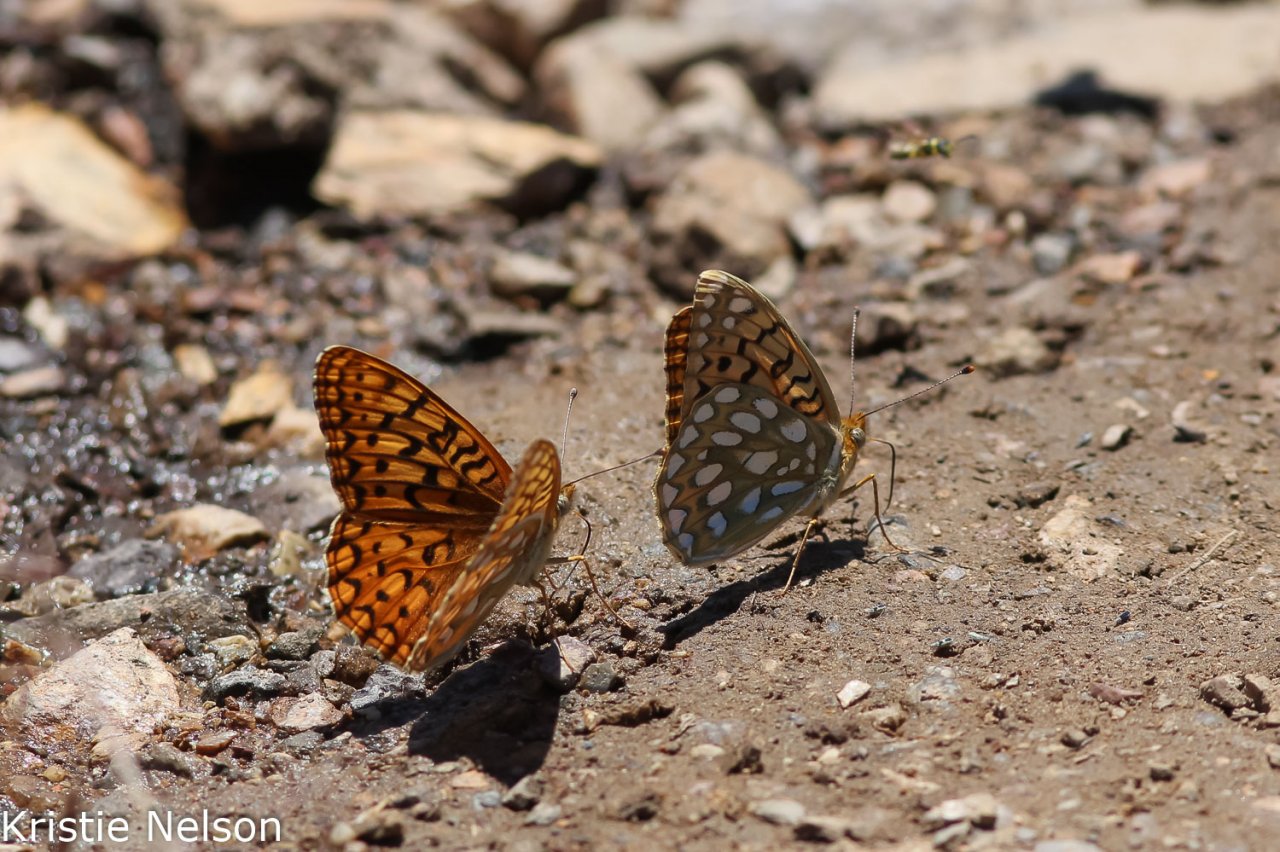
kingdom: Animalia
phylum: Arthropoda
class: Insecta
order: Lepidoptera
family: Nymphalidae
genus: Speyeria
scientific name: Speyeria callippe
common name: Callippe Fritillary
